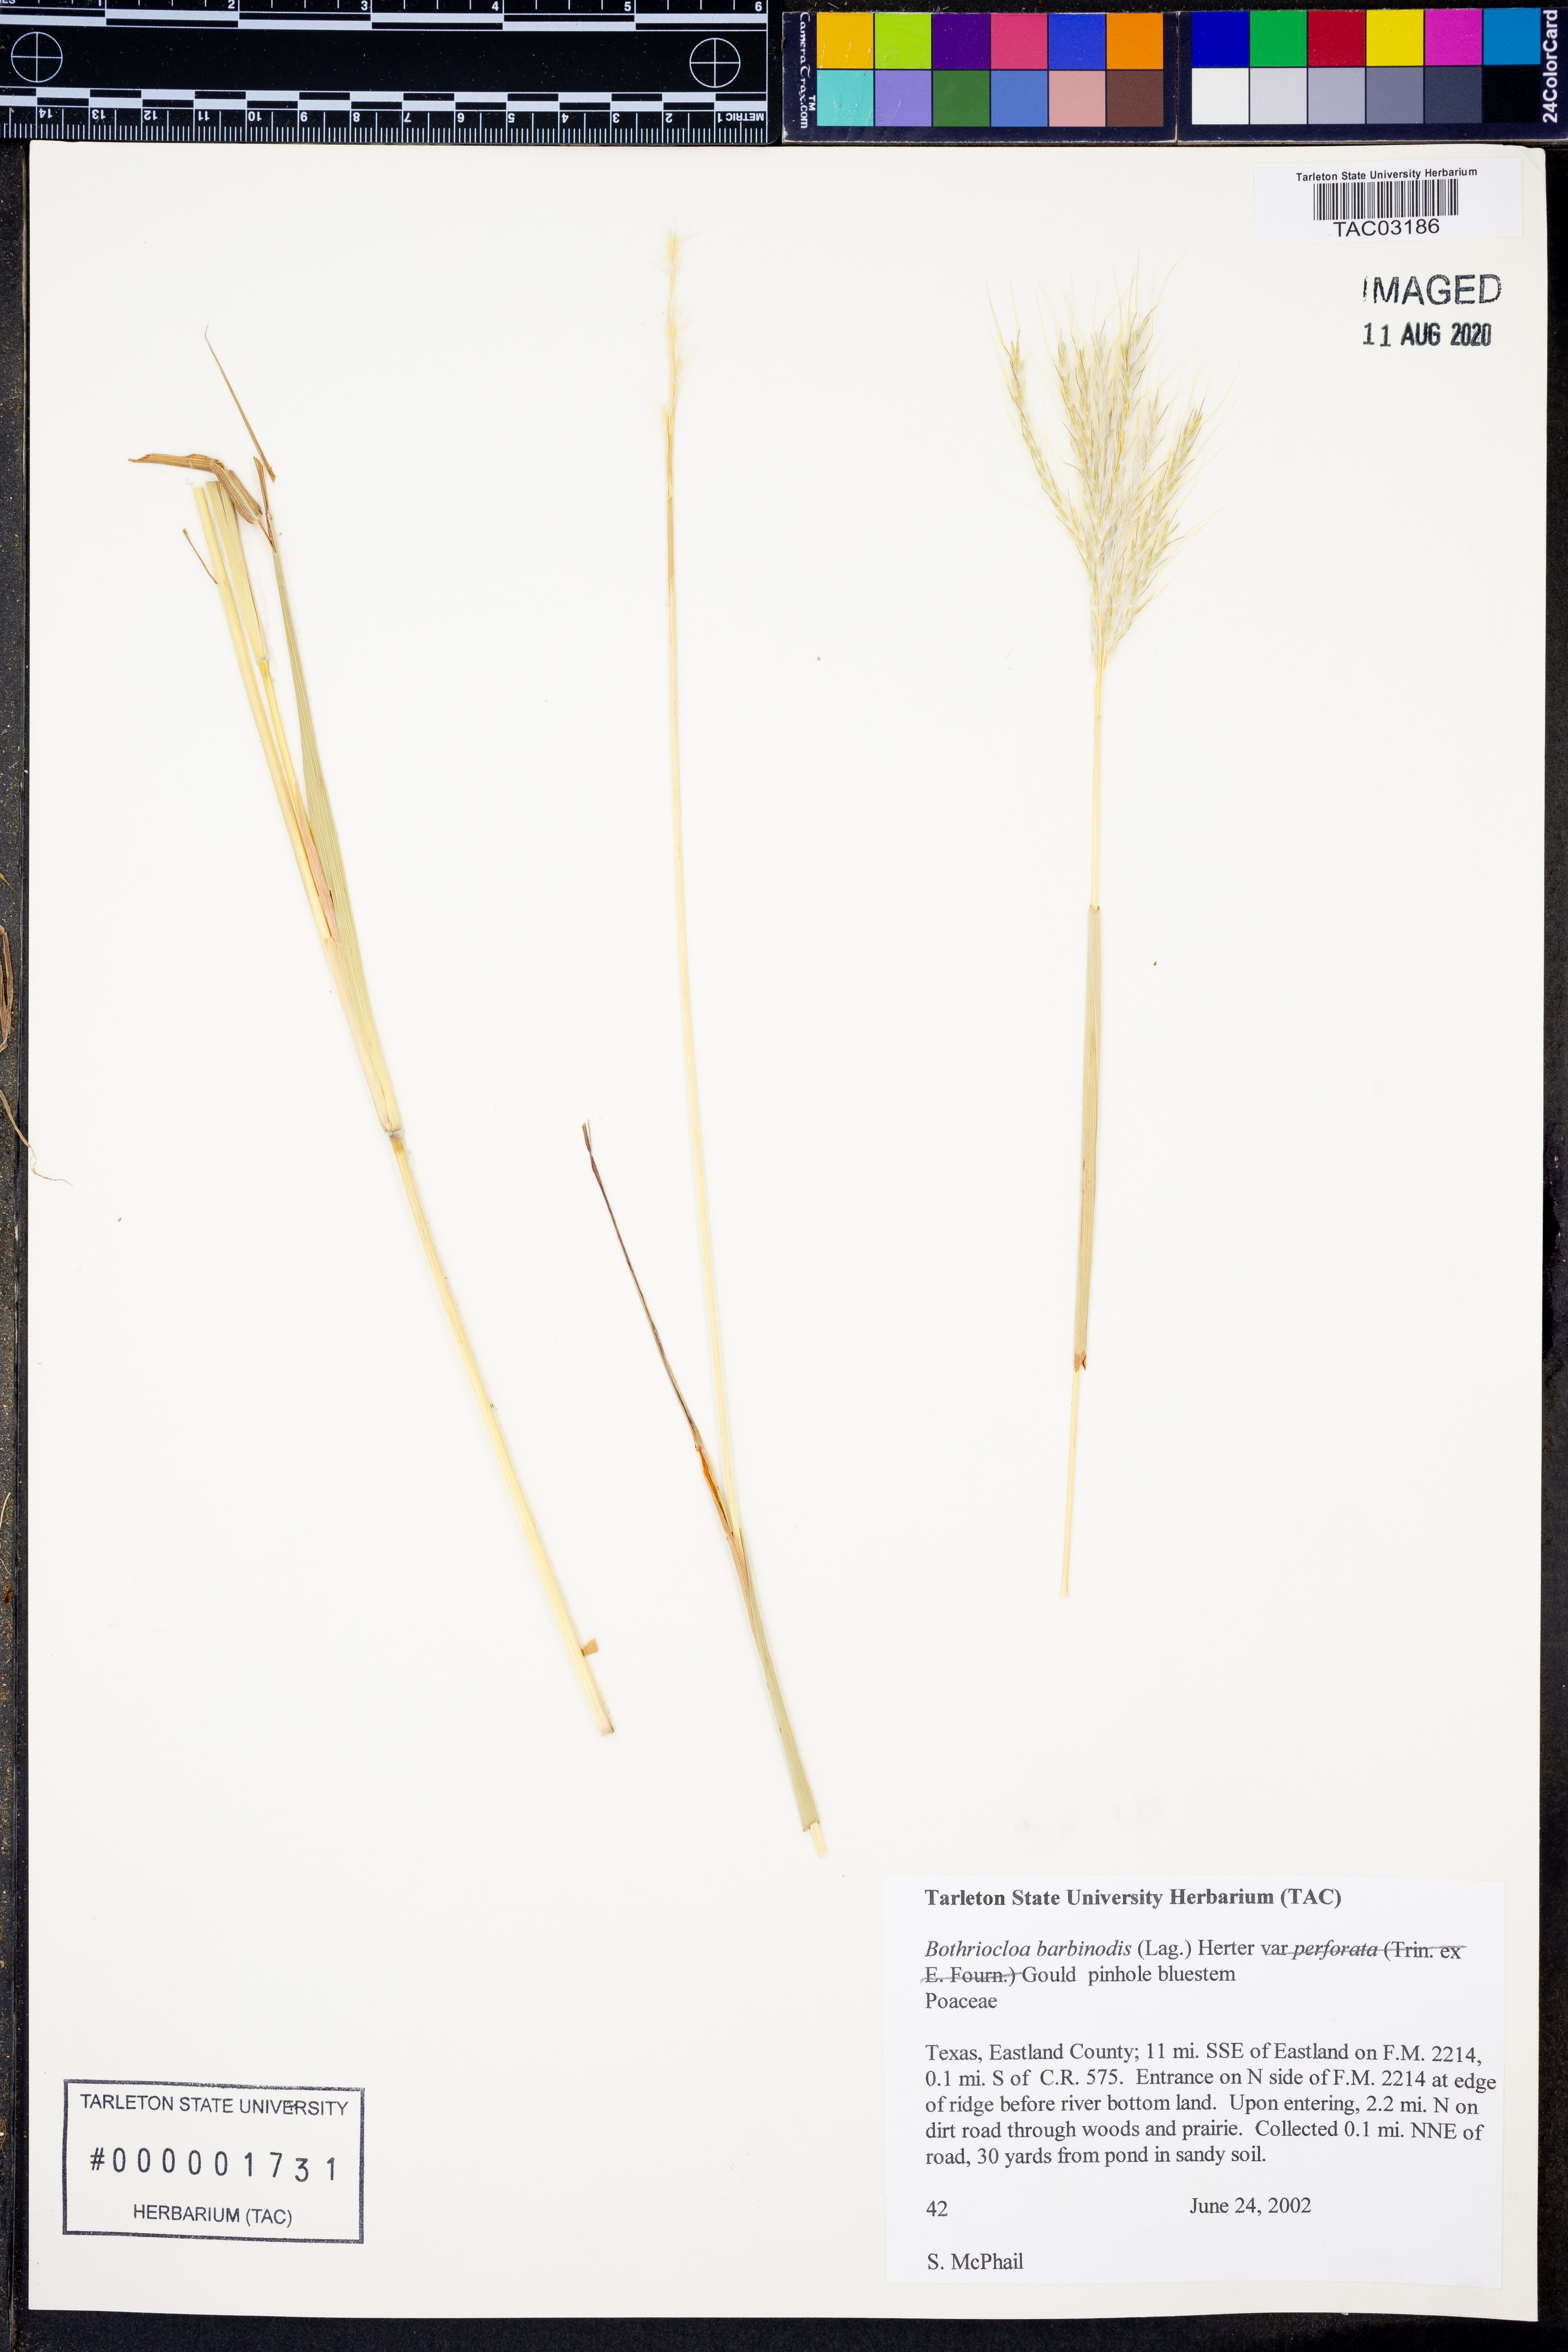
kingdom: Plantae
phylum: Tracheophyta
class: Liliopsida
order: Poales
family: Poaceae
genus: Bothriochloa
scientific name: Bothriochloa barbinodis
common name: Cane bluestem
